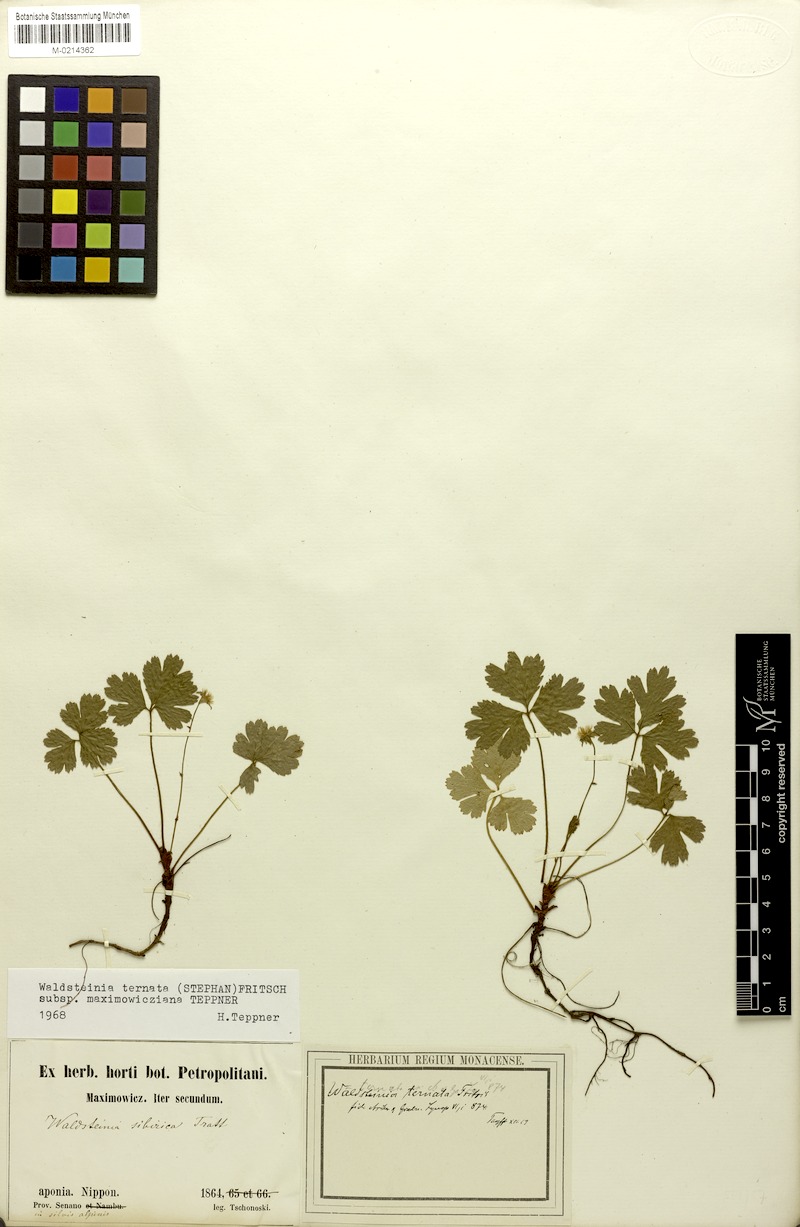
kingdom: Plantae
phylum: Tracheophyta
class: Magnoliopsida
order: Rosales
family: Rosaceae
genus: Geum
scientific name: Geum ternatum
